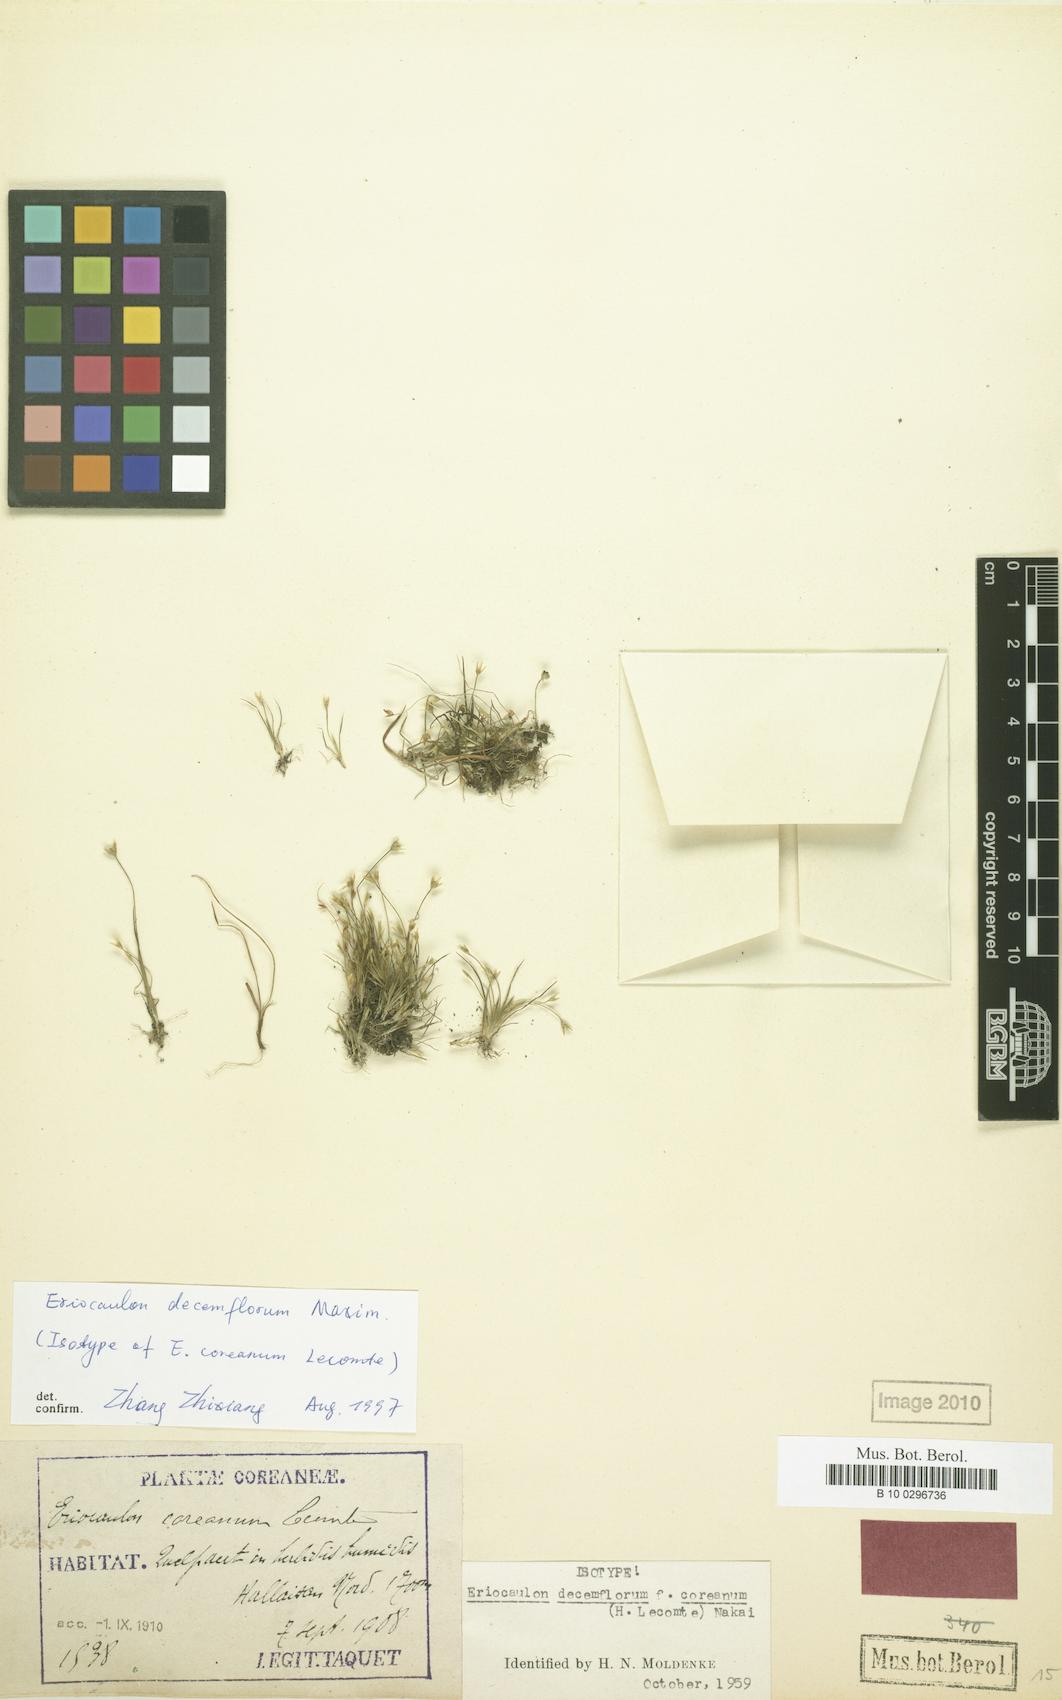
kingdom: Plantae
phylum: Tracheophyta
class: Liliopsida
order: Poales
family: Eriocaulaceae
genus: Eriocaulon
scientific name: Eriocaulon decemflorum
